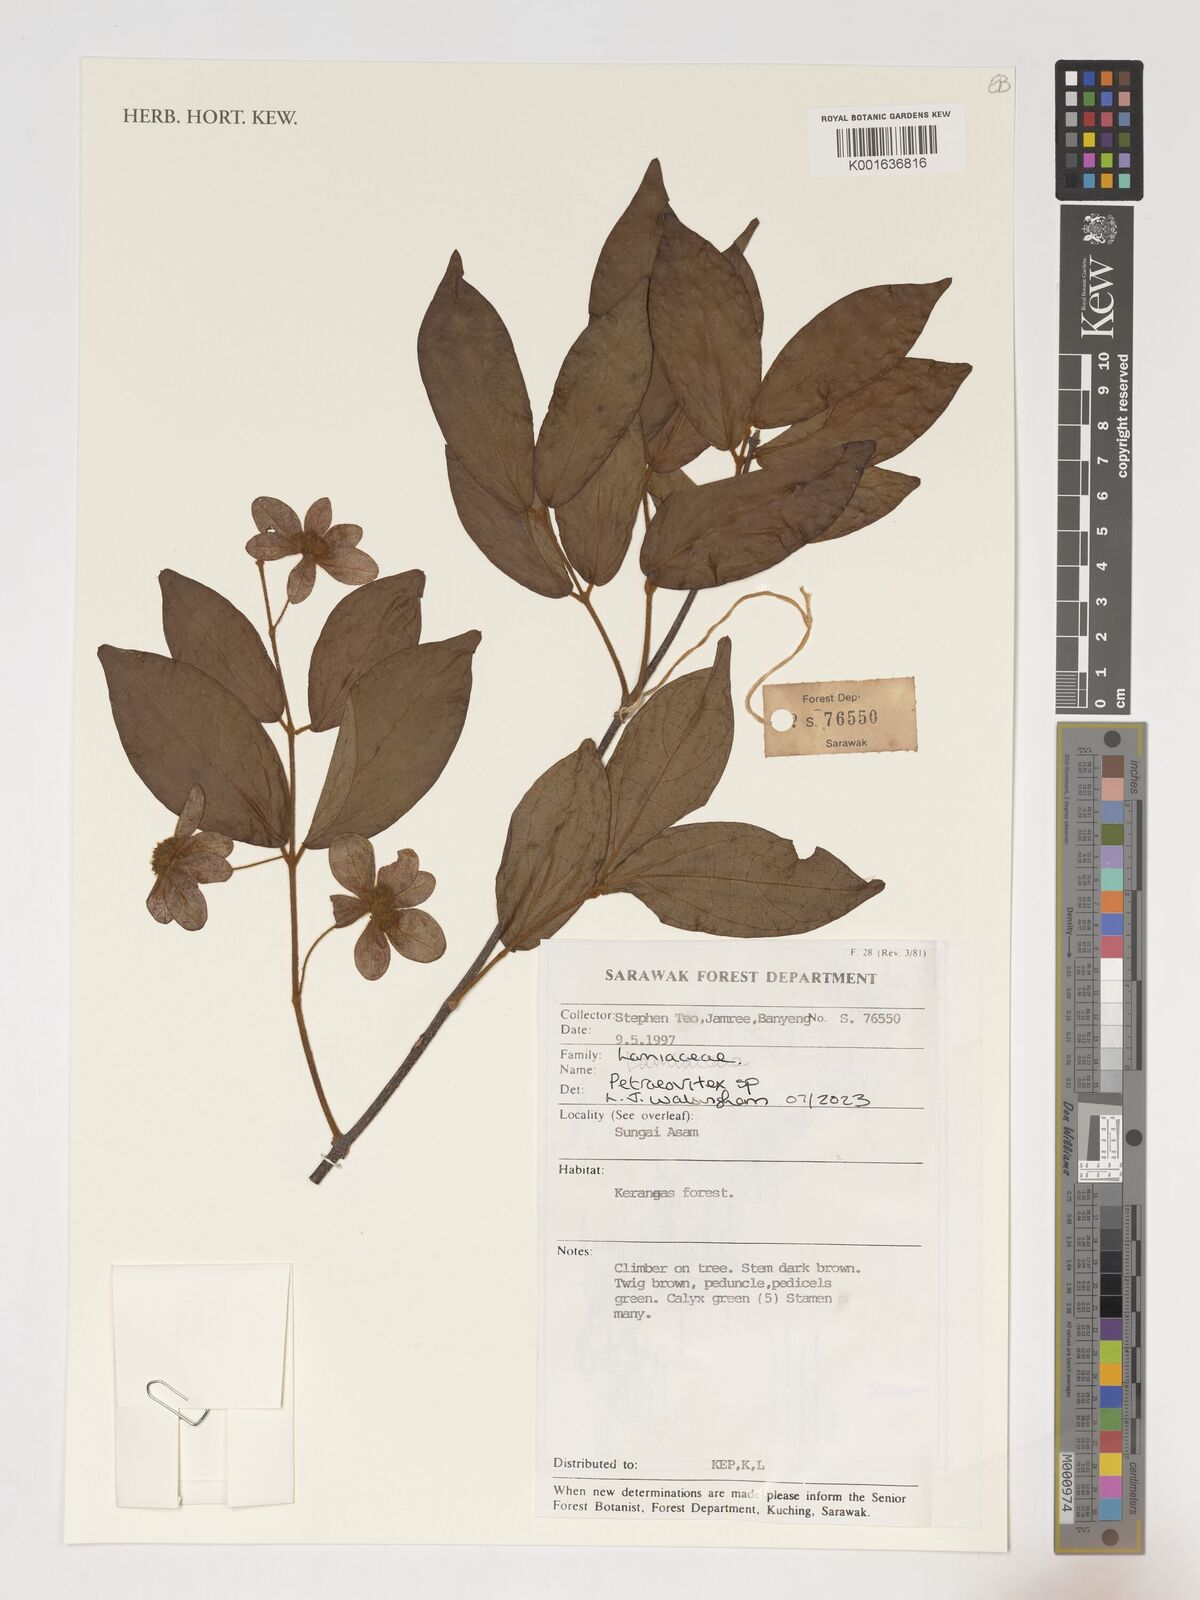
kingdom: Plantae
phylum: Tracheophyta
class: Magnoliopsida
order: Lamiales
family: Lamiaceae
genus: Petraeovitex
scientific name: Petraeovitex
